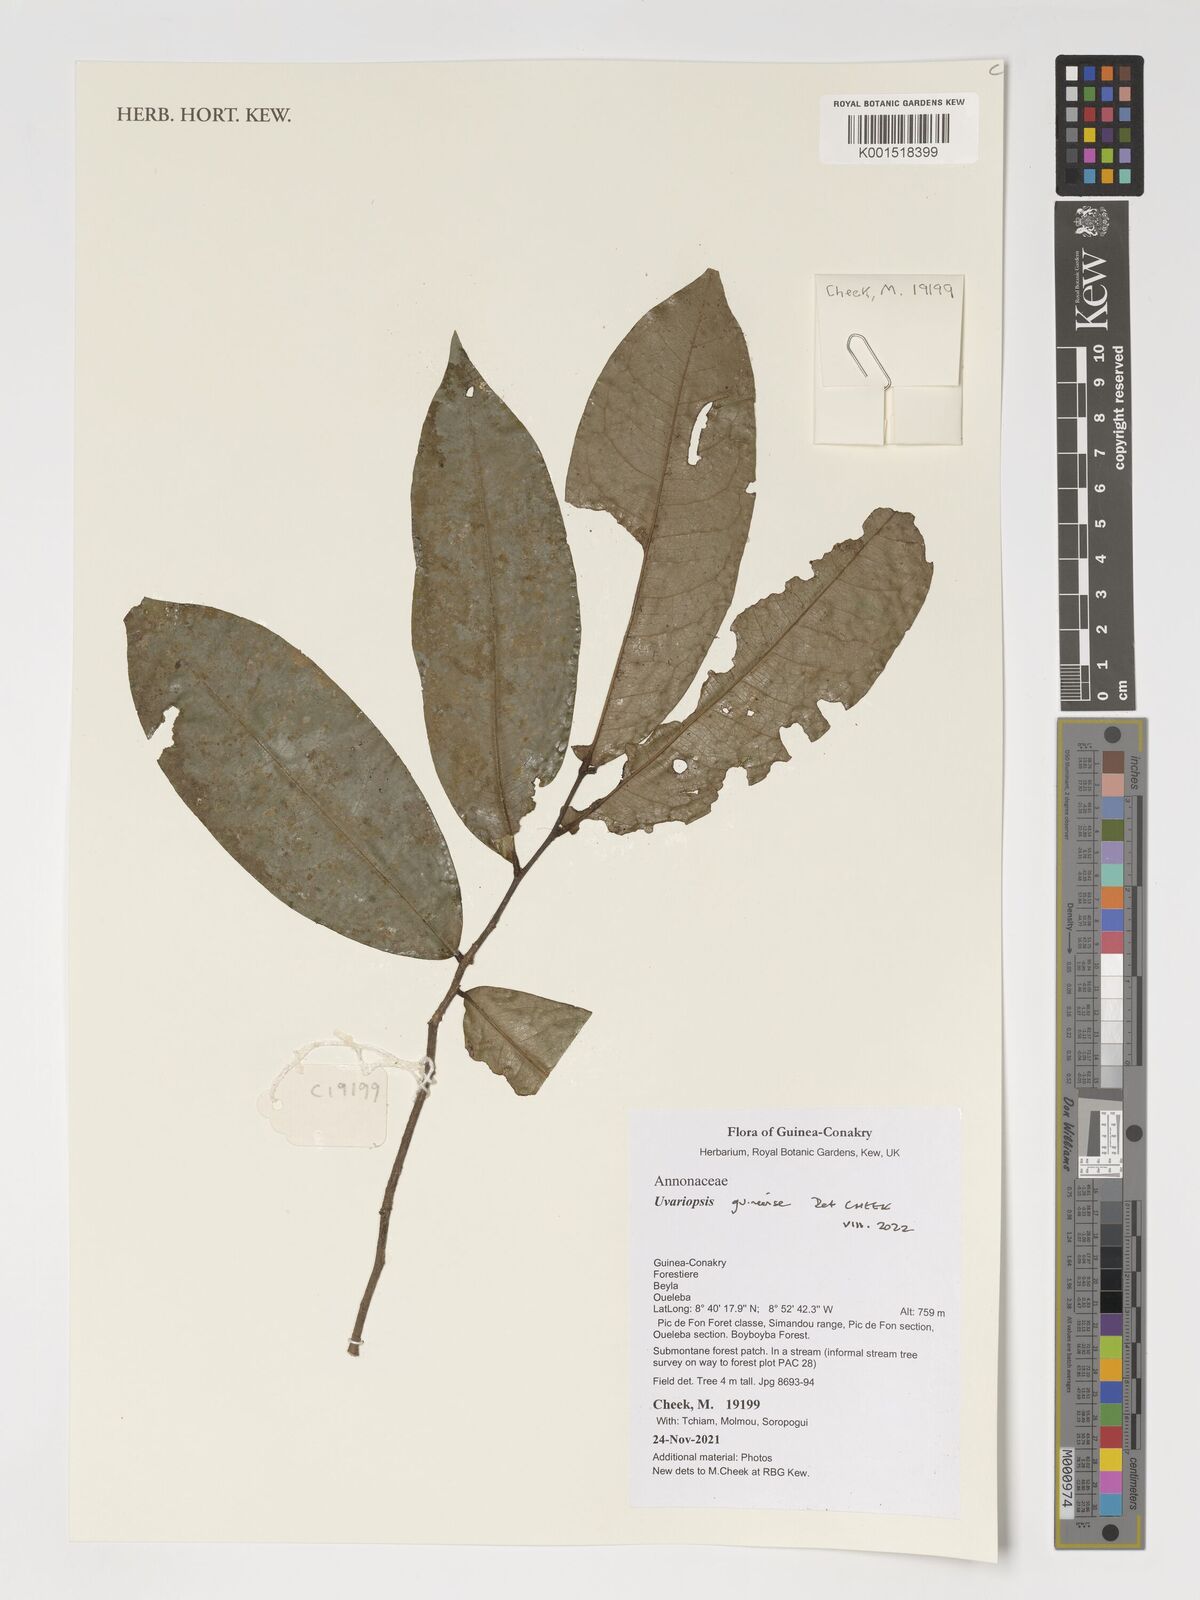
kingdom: Plantae
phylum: Tracheophyta
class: Magnoliopsida
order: Magnoliales
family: Annonaceae
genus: Uvariopsis
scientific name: Uvariopsis guineensis
